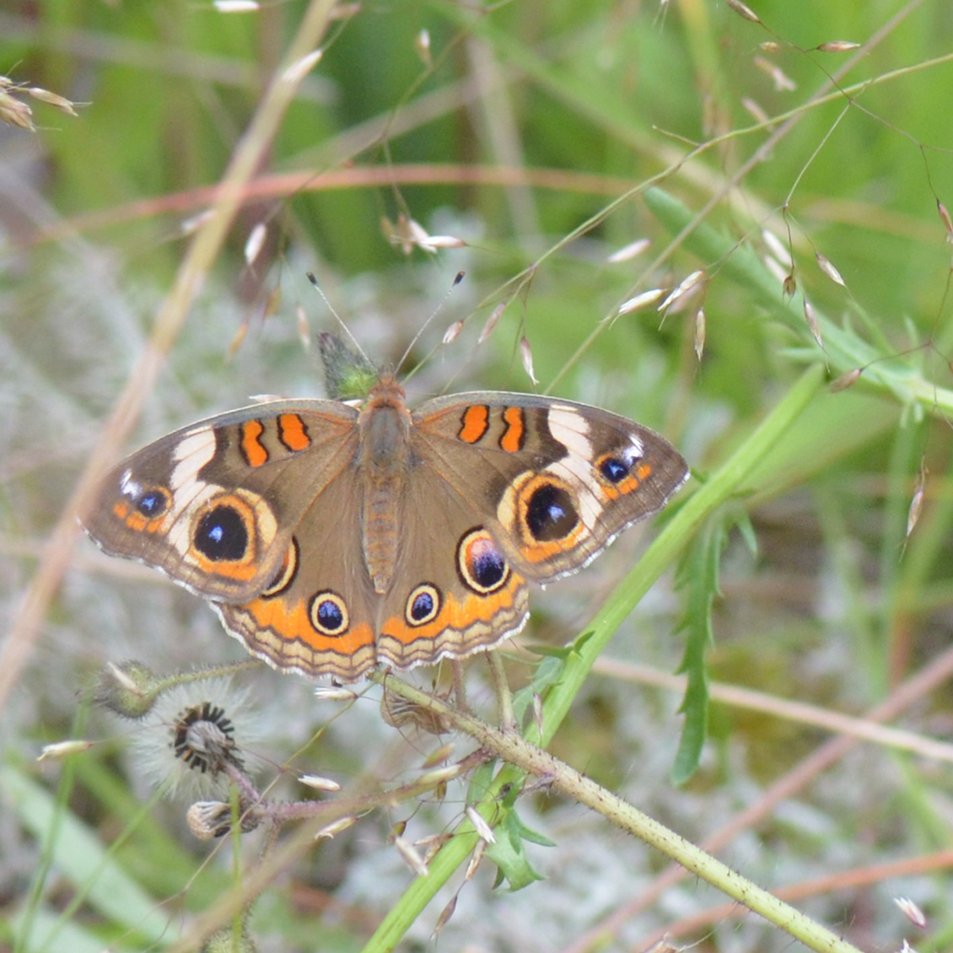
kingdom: Animalia
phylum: Arthropoda
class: Insecta
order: Lepidoptera
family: Nymphalidae
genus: Junonia
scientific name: Junonia coenia
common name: Common Buckeye
